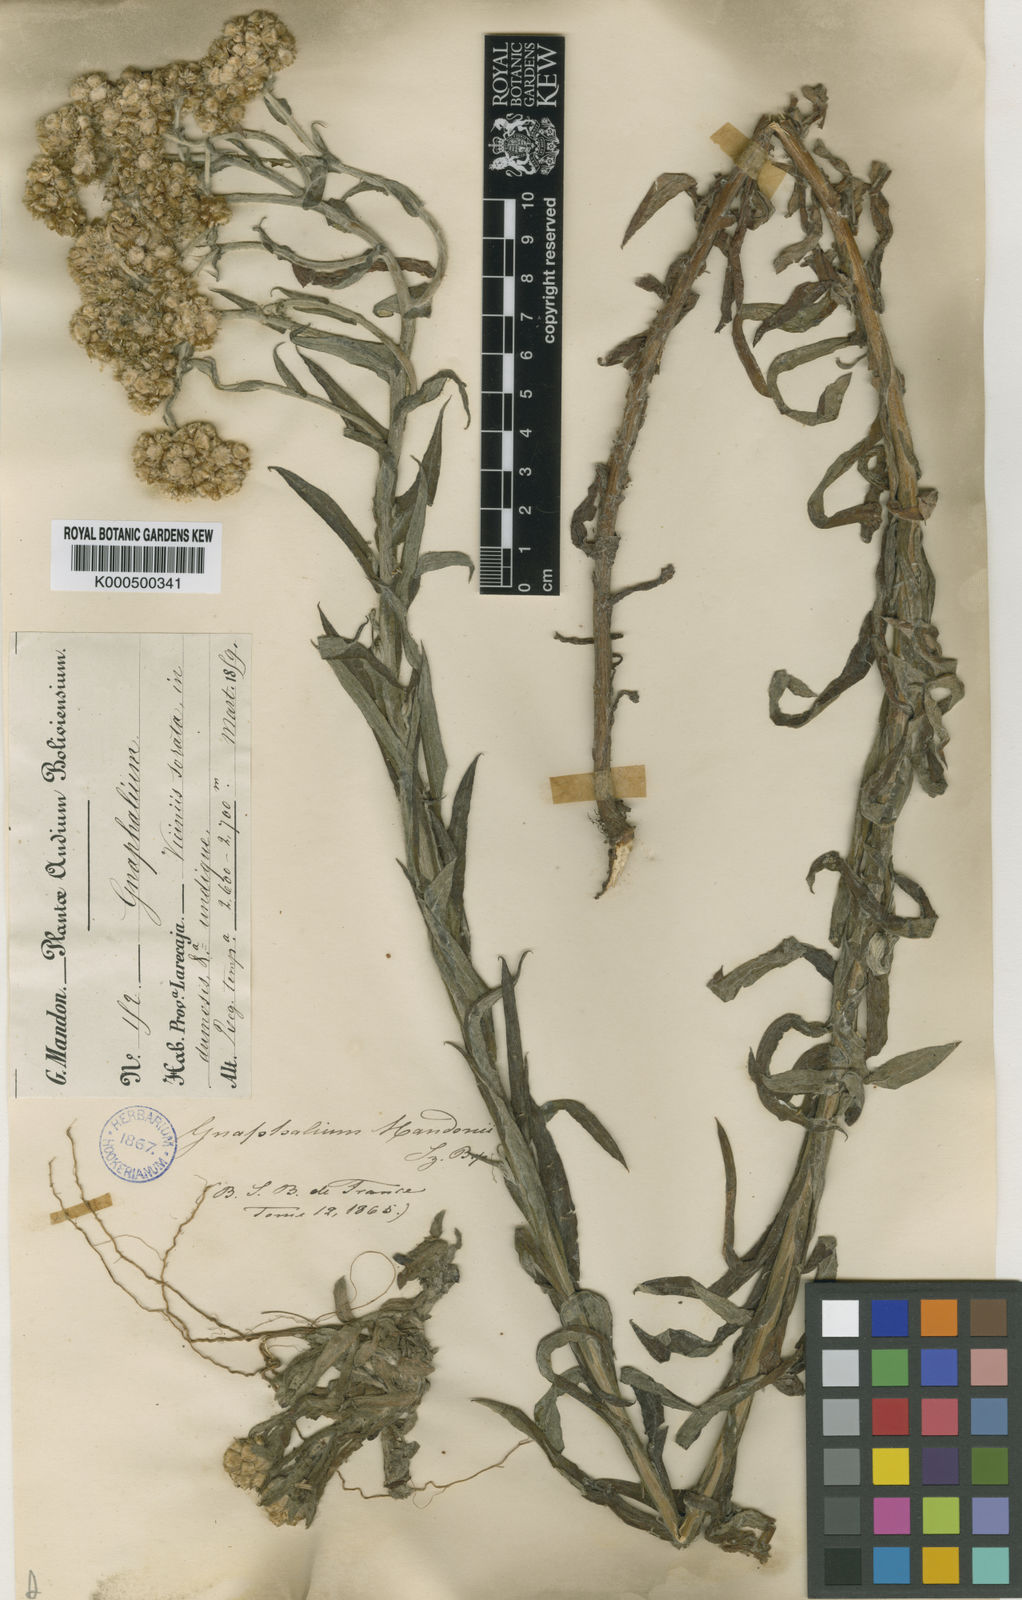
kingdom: Plantae
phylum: Tracheophyta
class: Magnoliopsida
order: Asterales
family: Asteraceae
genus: Pseudognaphalium
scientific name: Pseudognaphalium gaudichaudianum
